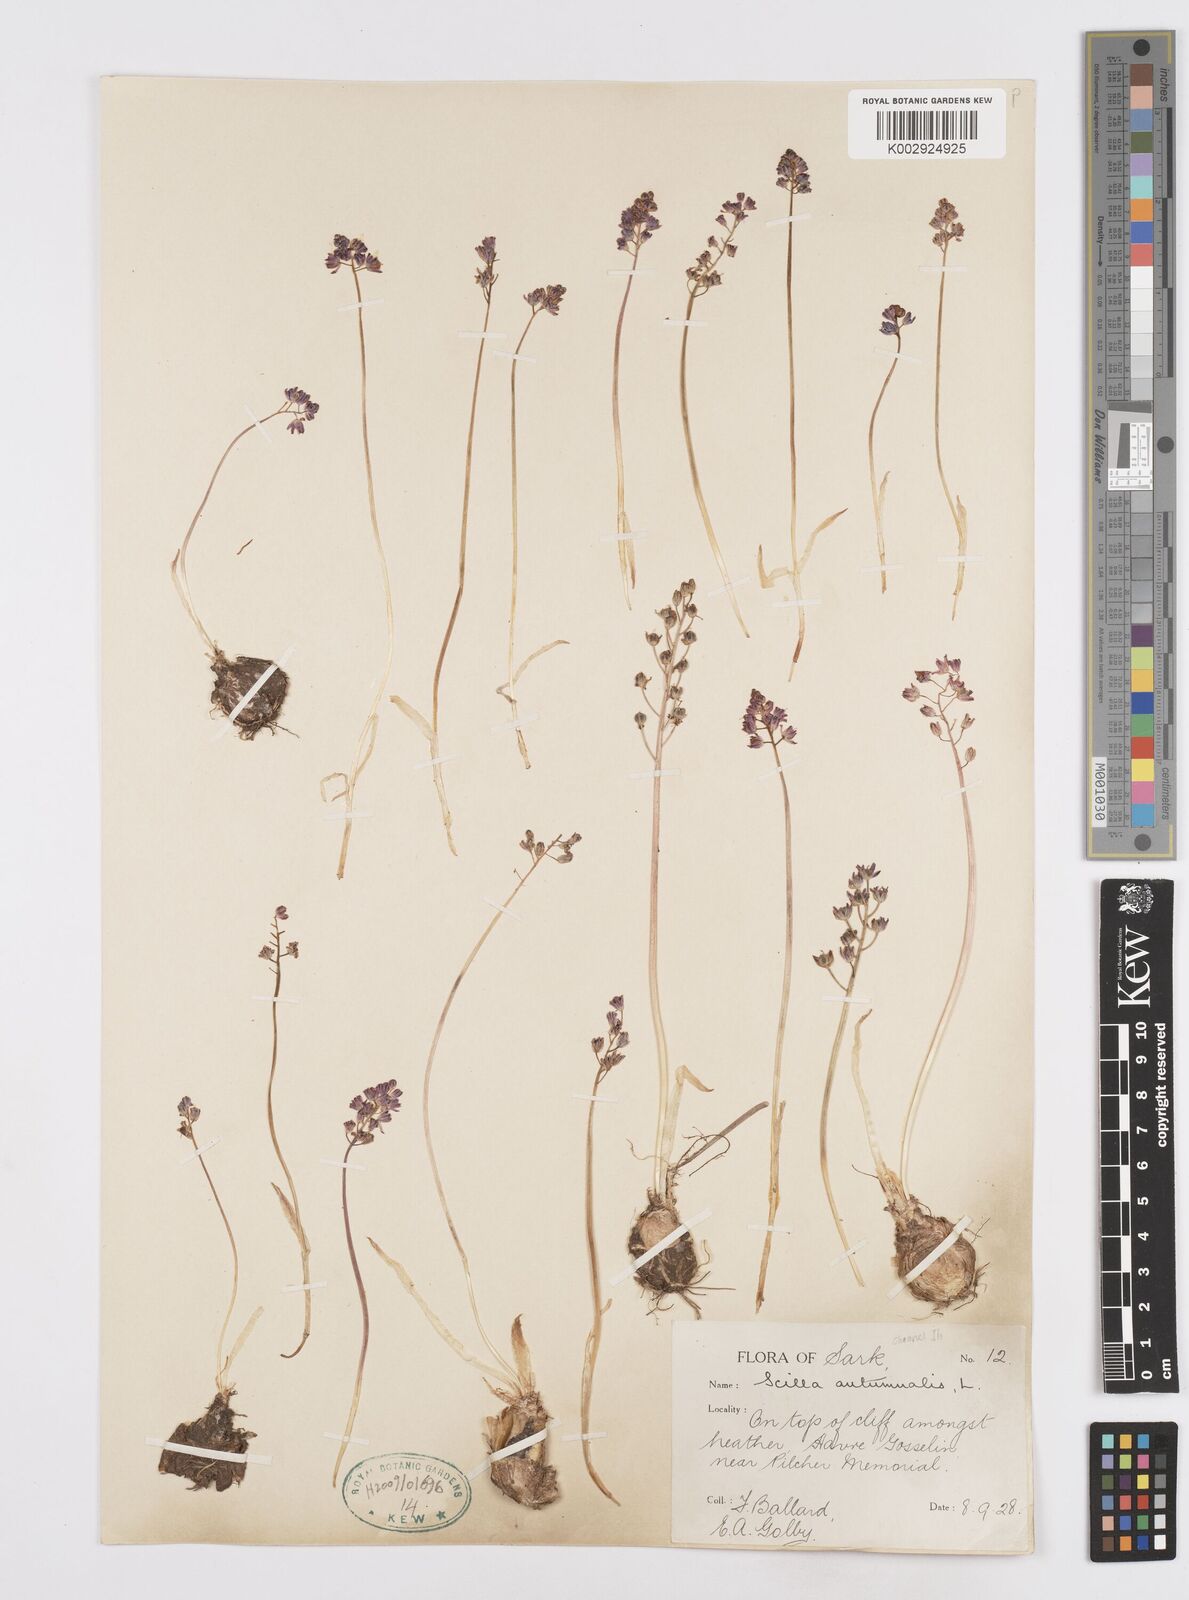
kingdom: Plantae
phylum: Tracheophyta
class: Liliopsida
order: Asparagales
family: Asparagaceae
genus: Prospero
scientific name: Prospero autumnale
